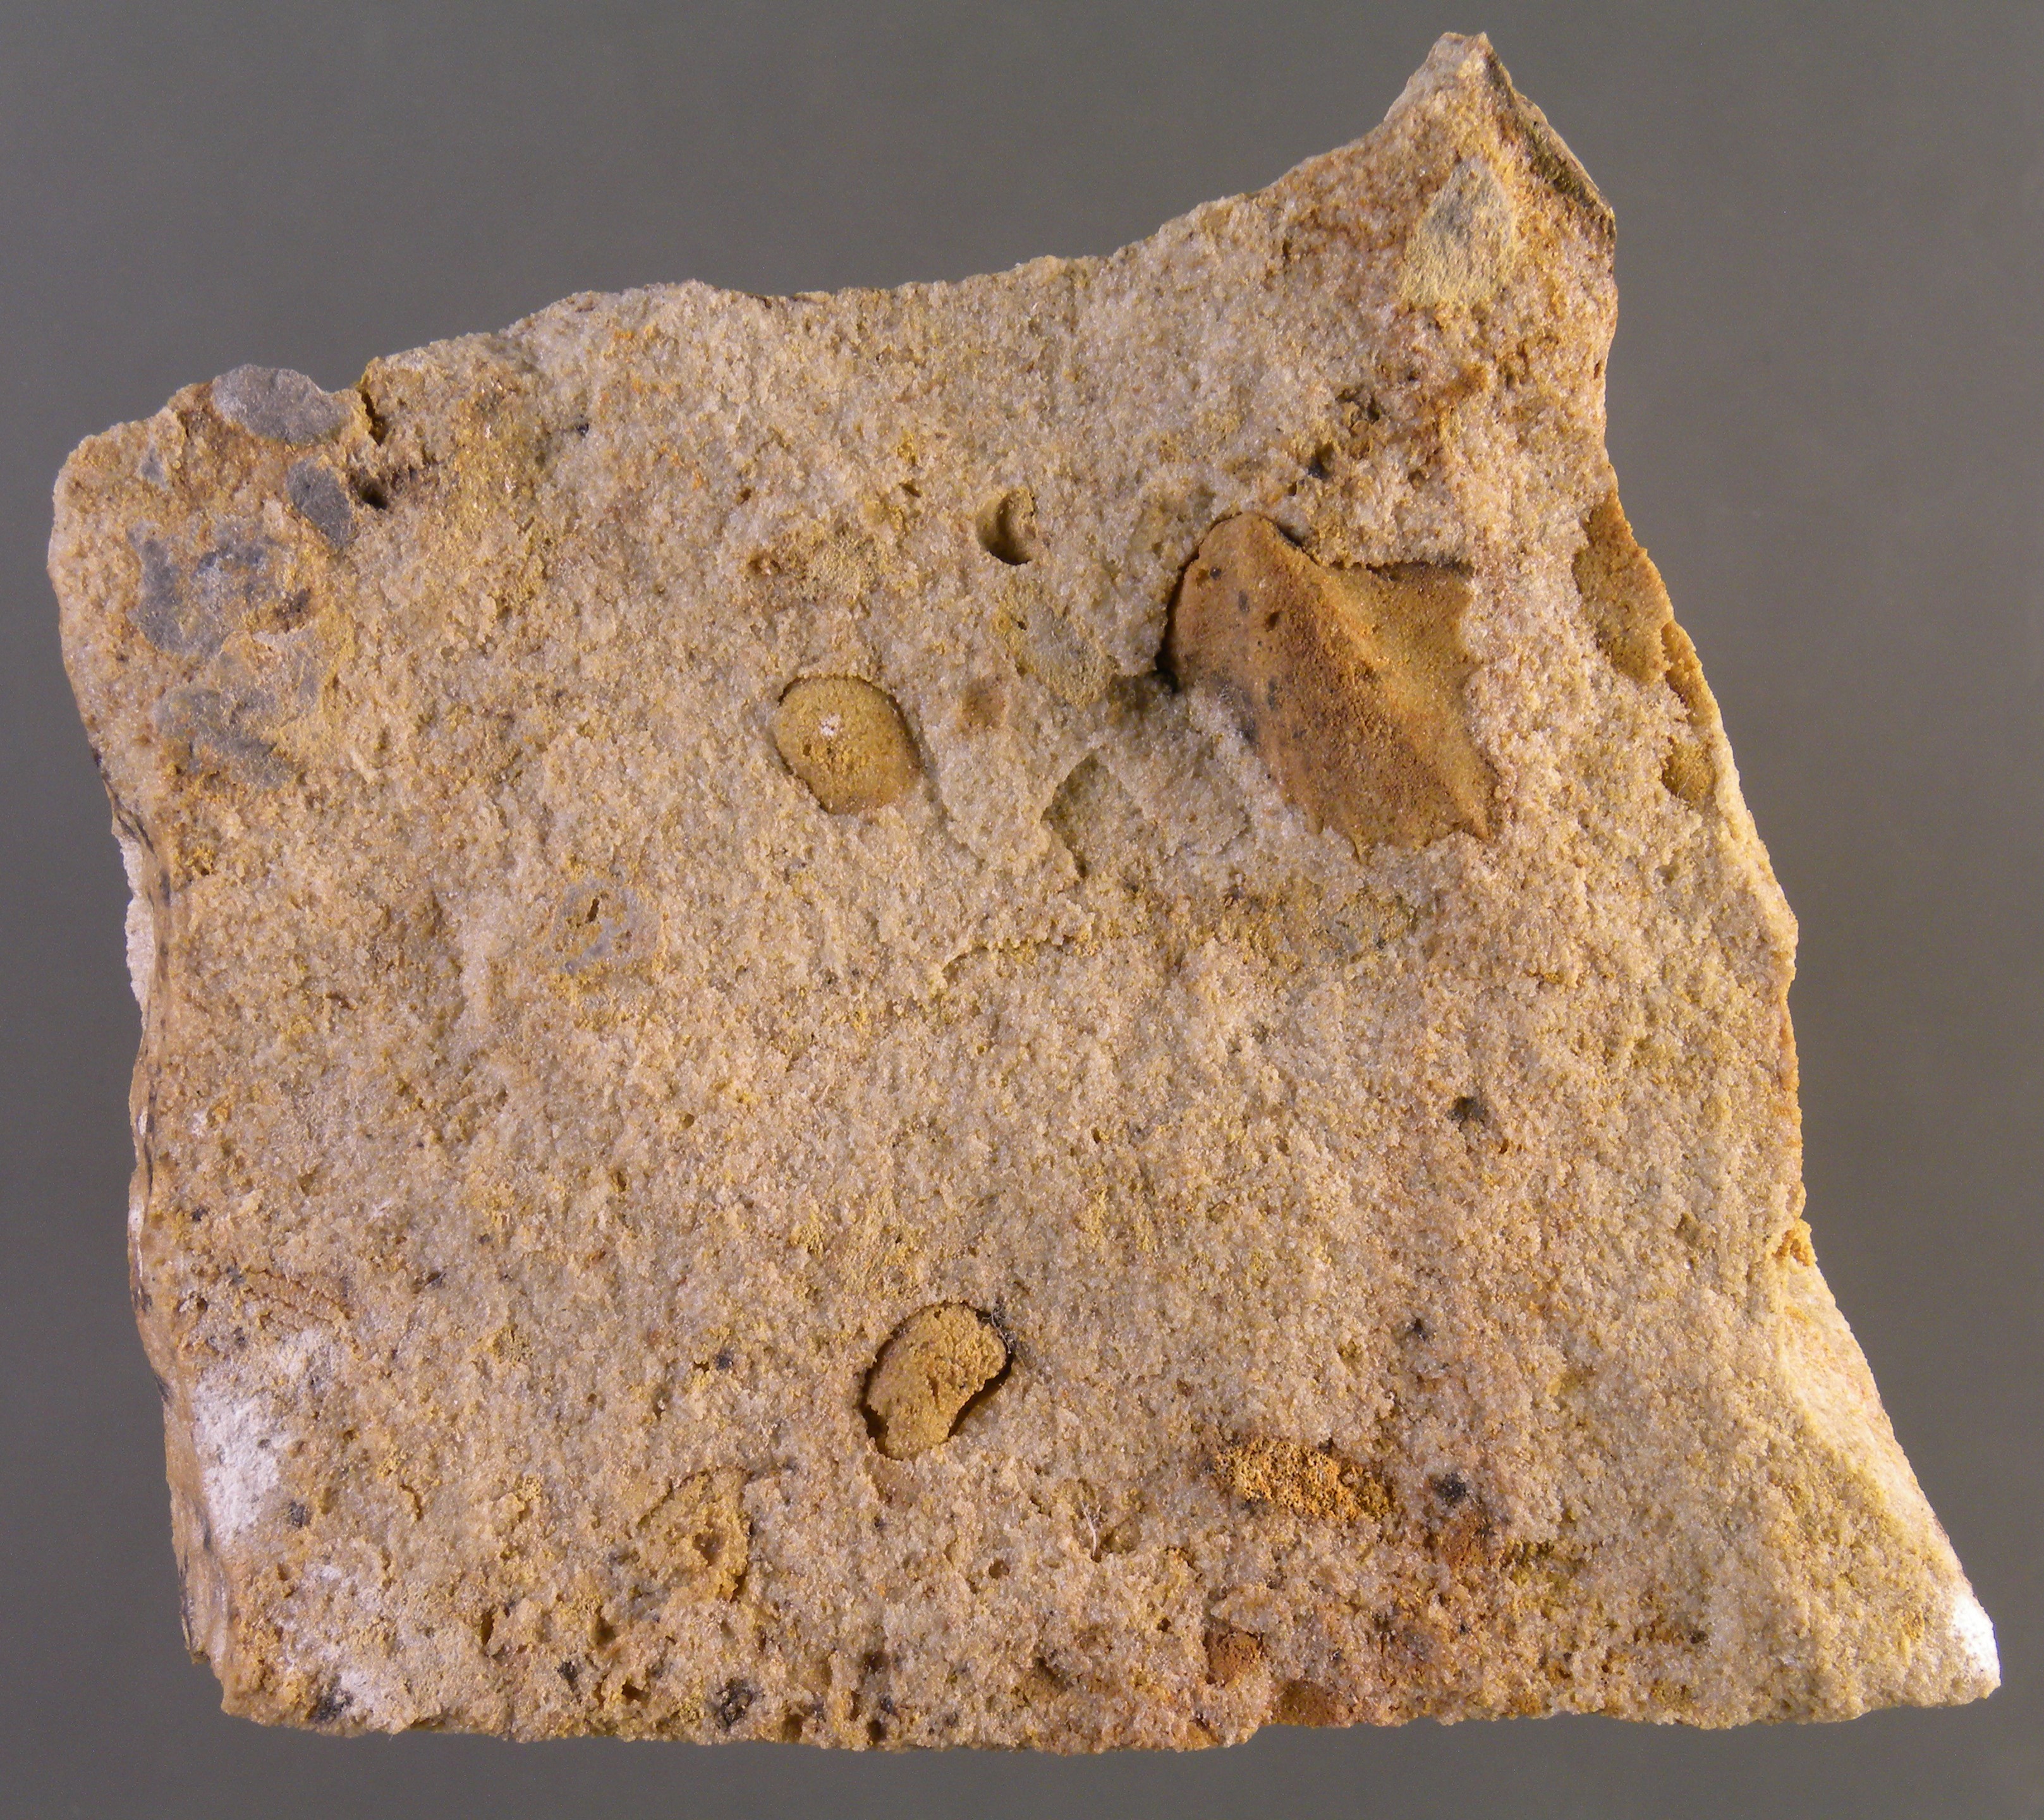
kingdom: Animalia
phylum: Mollusca
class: Bivalvia
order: Ostreida
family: Pterineidae
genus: Ptychopteria
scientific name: Ptychopteria
